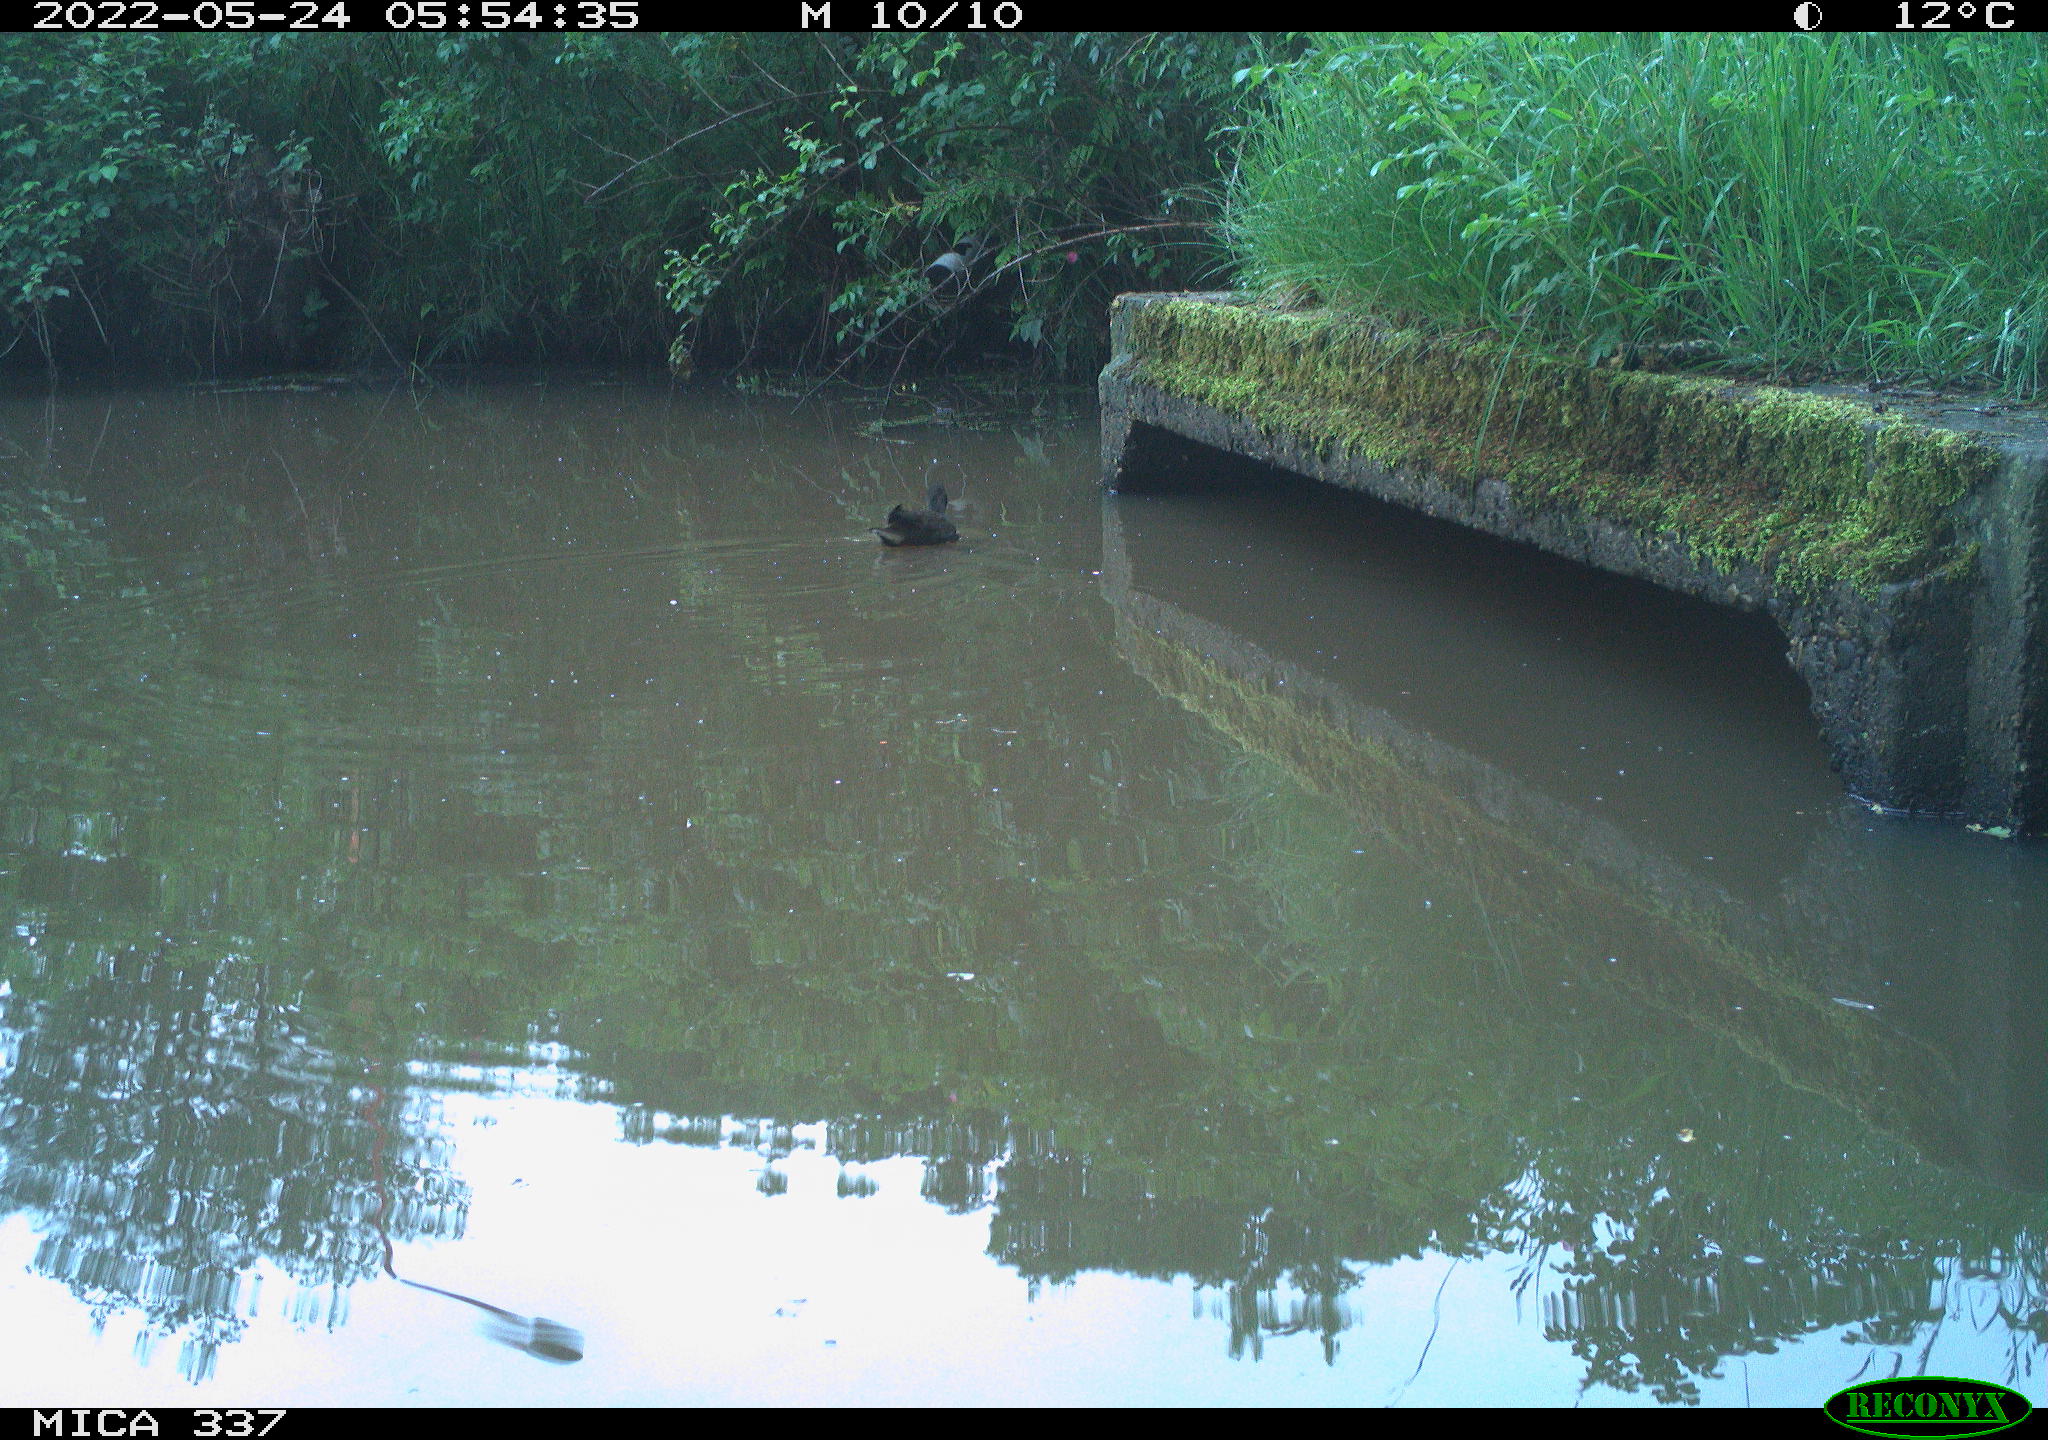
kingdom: Animalia
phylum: Chordata
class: Aves
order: Gruiformes
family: Rallidae
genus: Gallinula
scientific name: Gallinula chloropus
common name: Common moorhen
